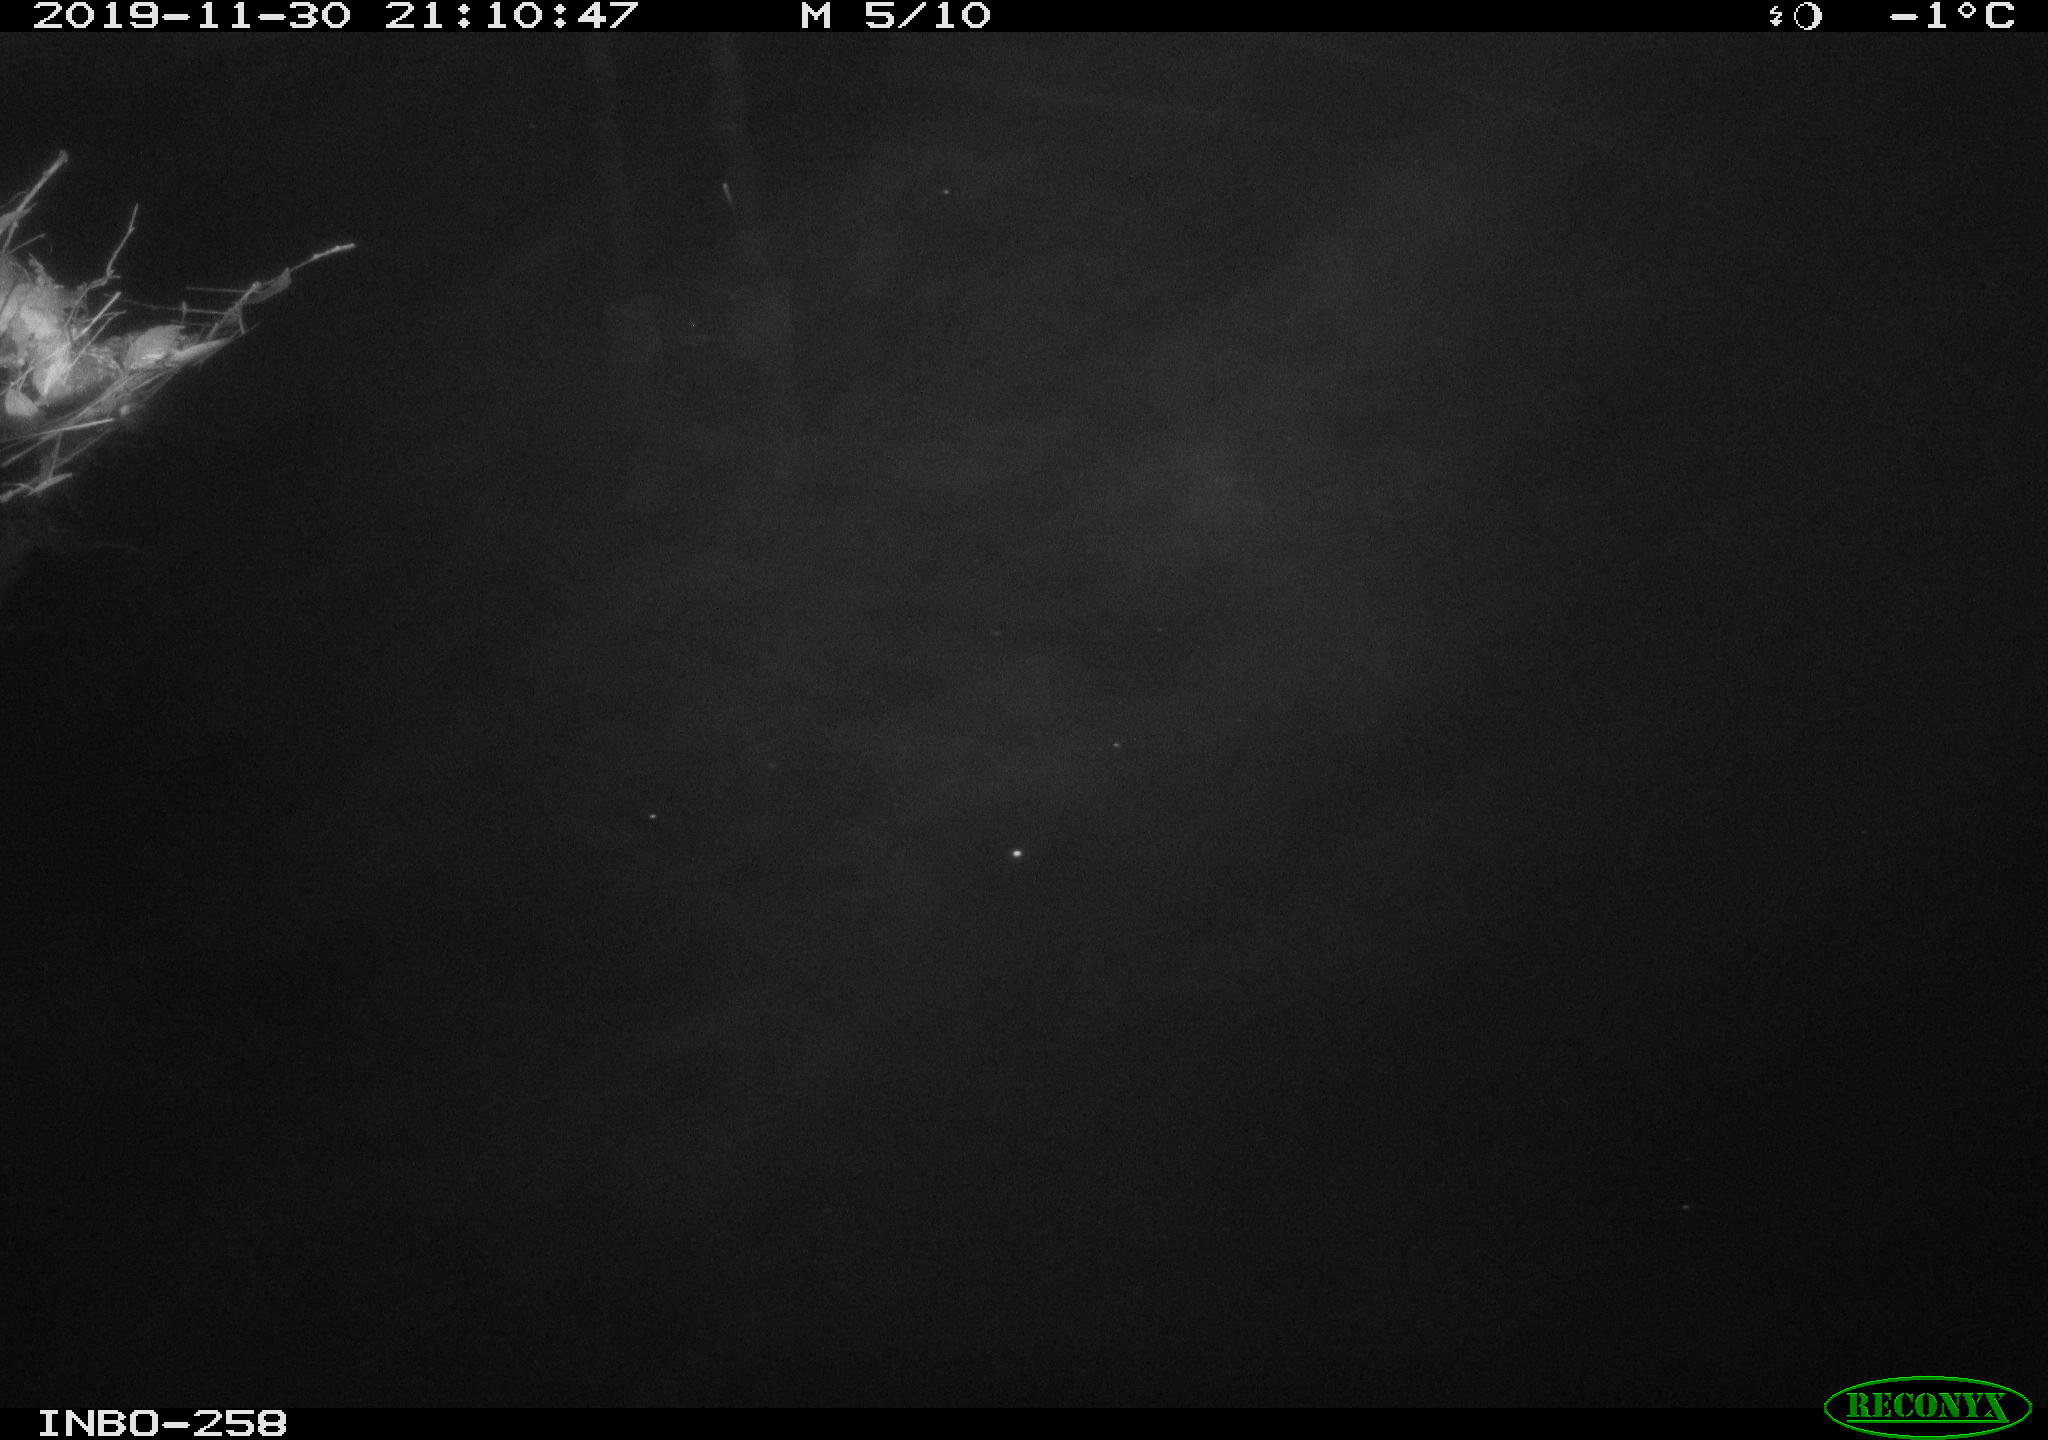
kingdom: Animalia
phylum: Chordata
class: Aves
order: Anseriformes
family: Anatidae
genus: Anas
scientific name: Anas platyrhynchos
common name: Mallard
